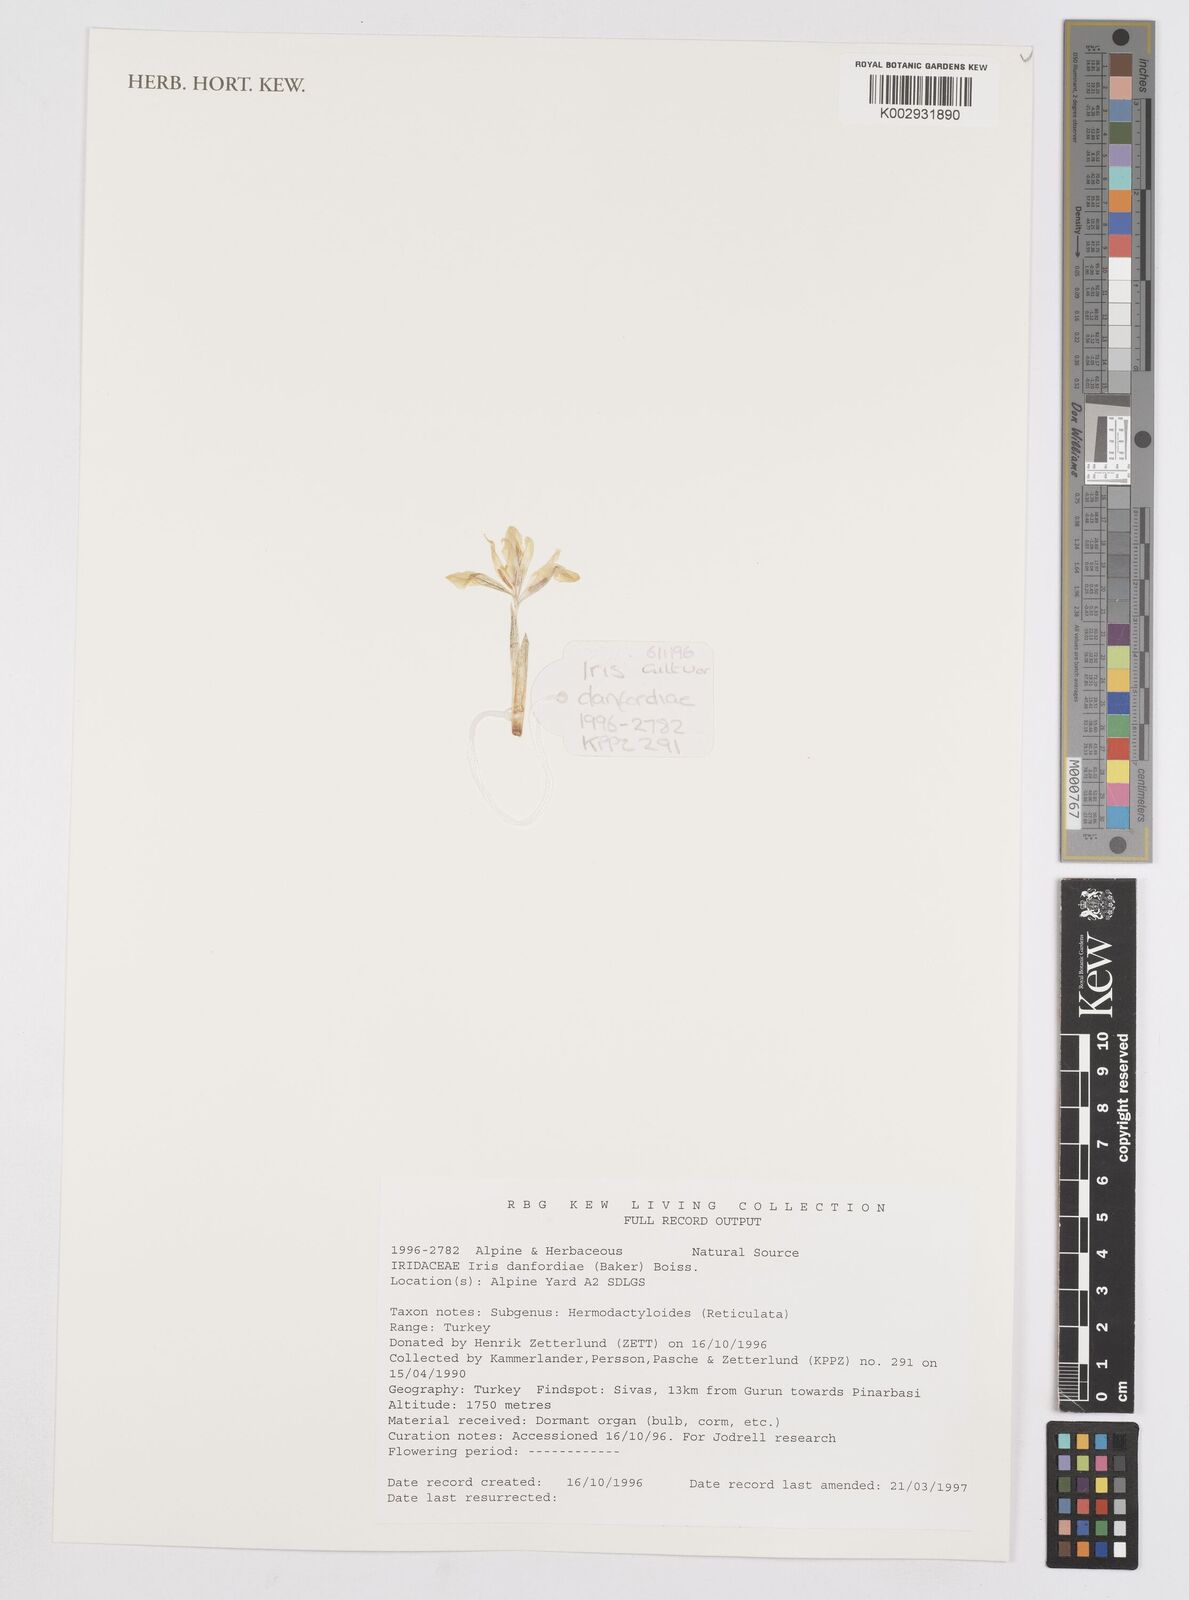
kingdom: Plantae
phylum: Tracheophyta
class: Liliopsida
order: Asparagales
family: Iridaceae
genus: Iris
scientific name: Iris danfordiae
